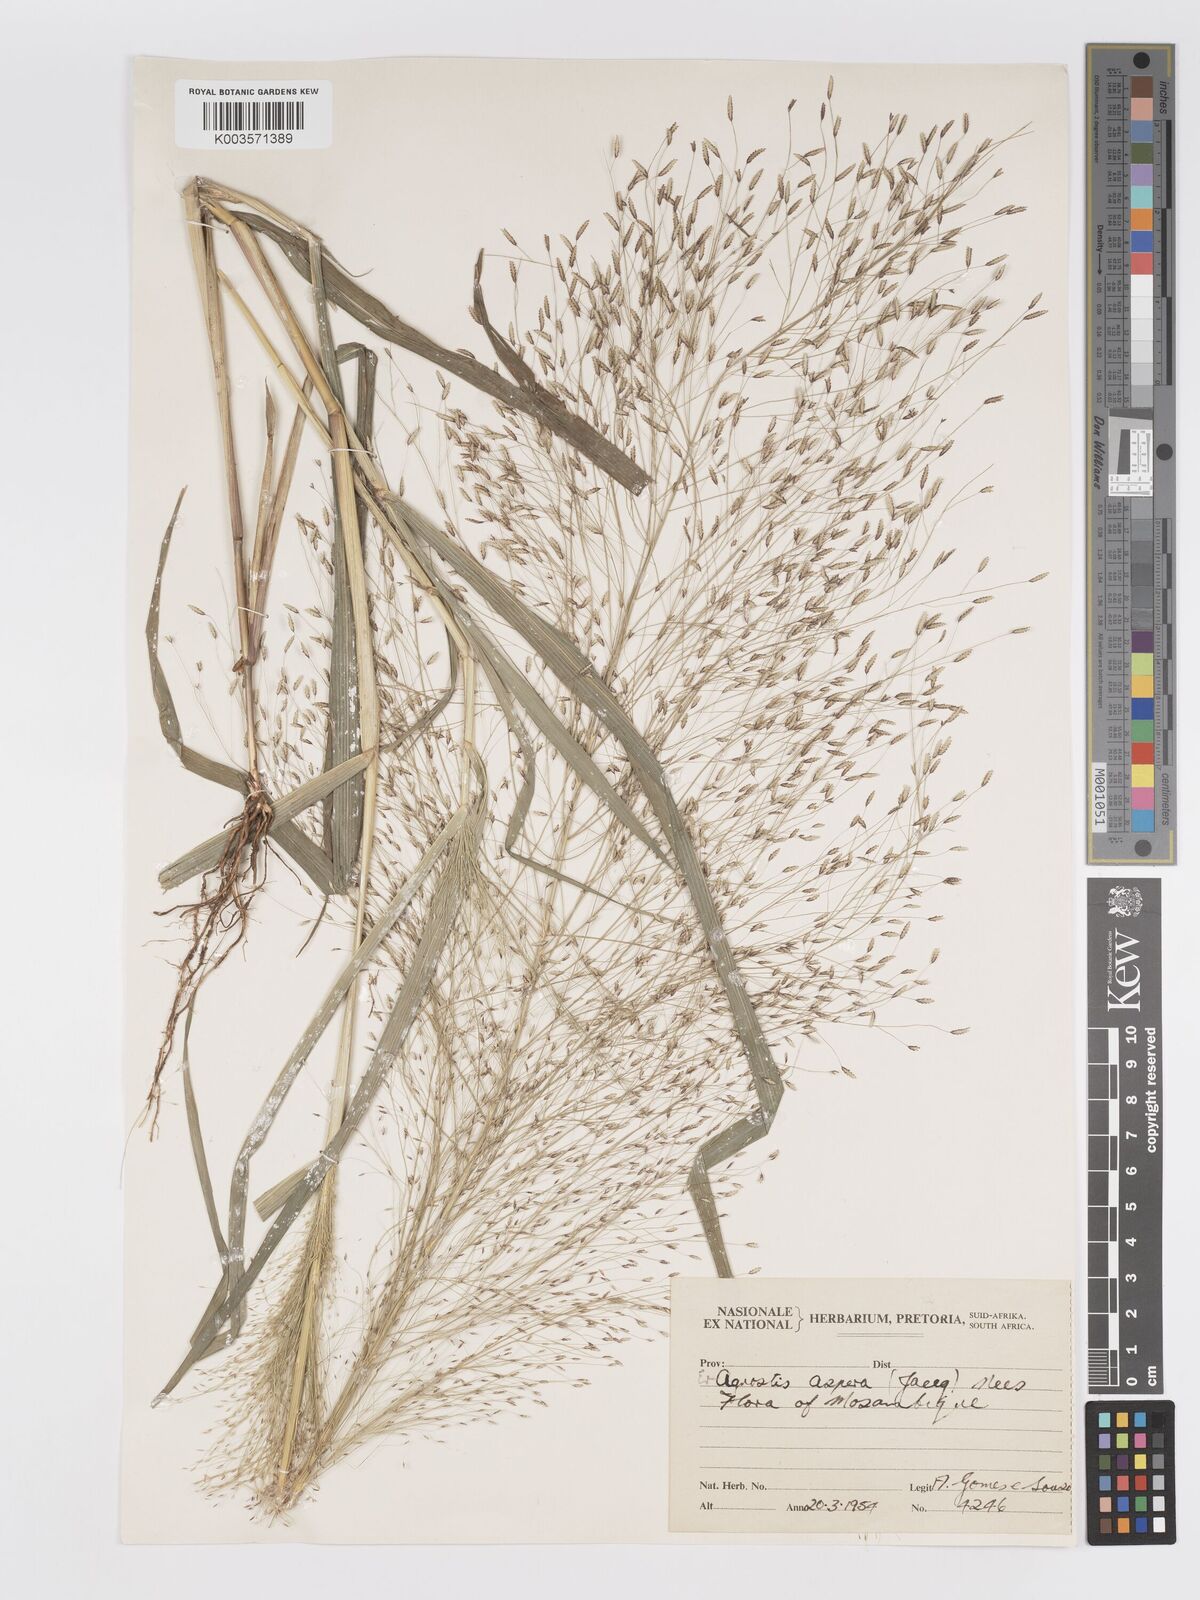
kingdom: Plantae
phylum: Tracheophyta
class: Liliopsida
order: Poales
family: Poaceae
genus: Eragrostis
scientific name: Eragrostis aspera
